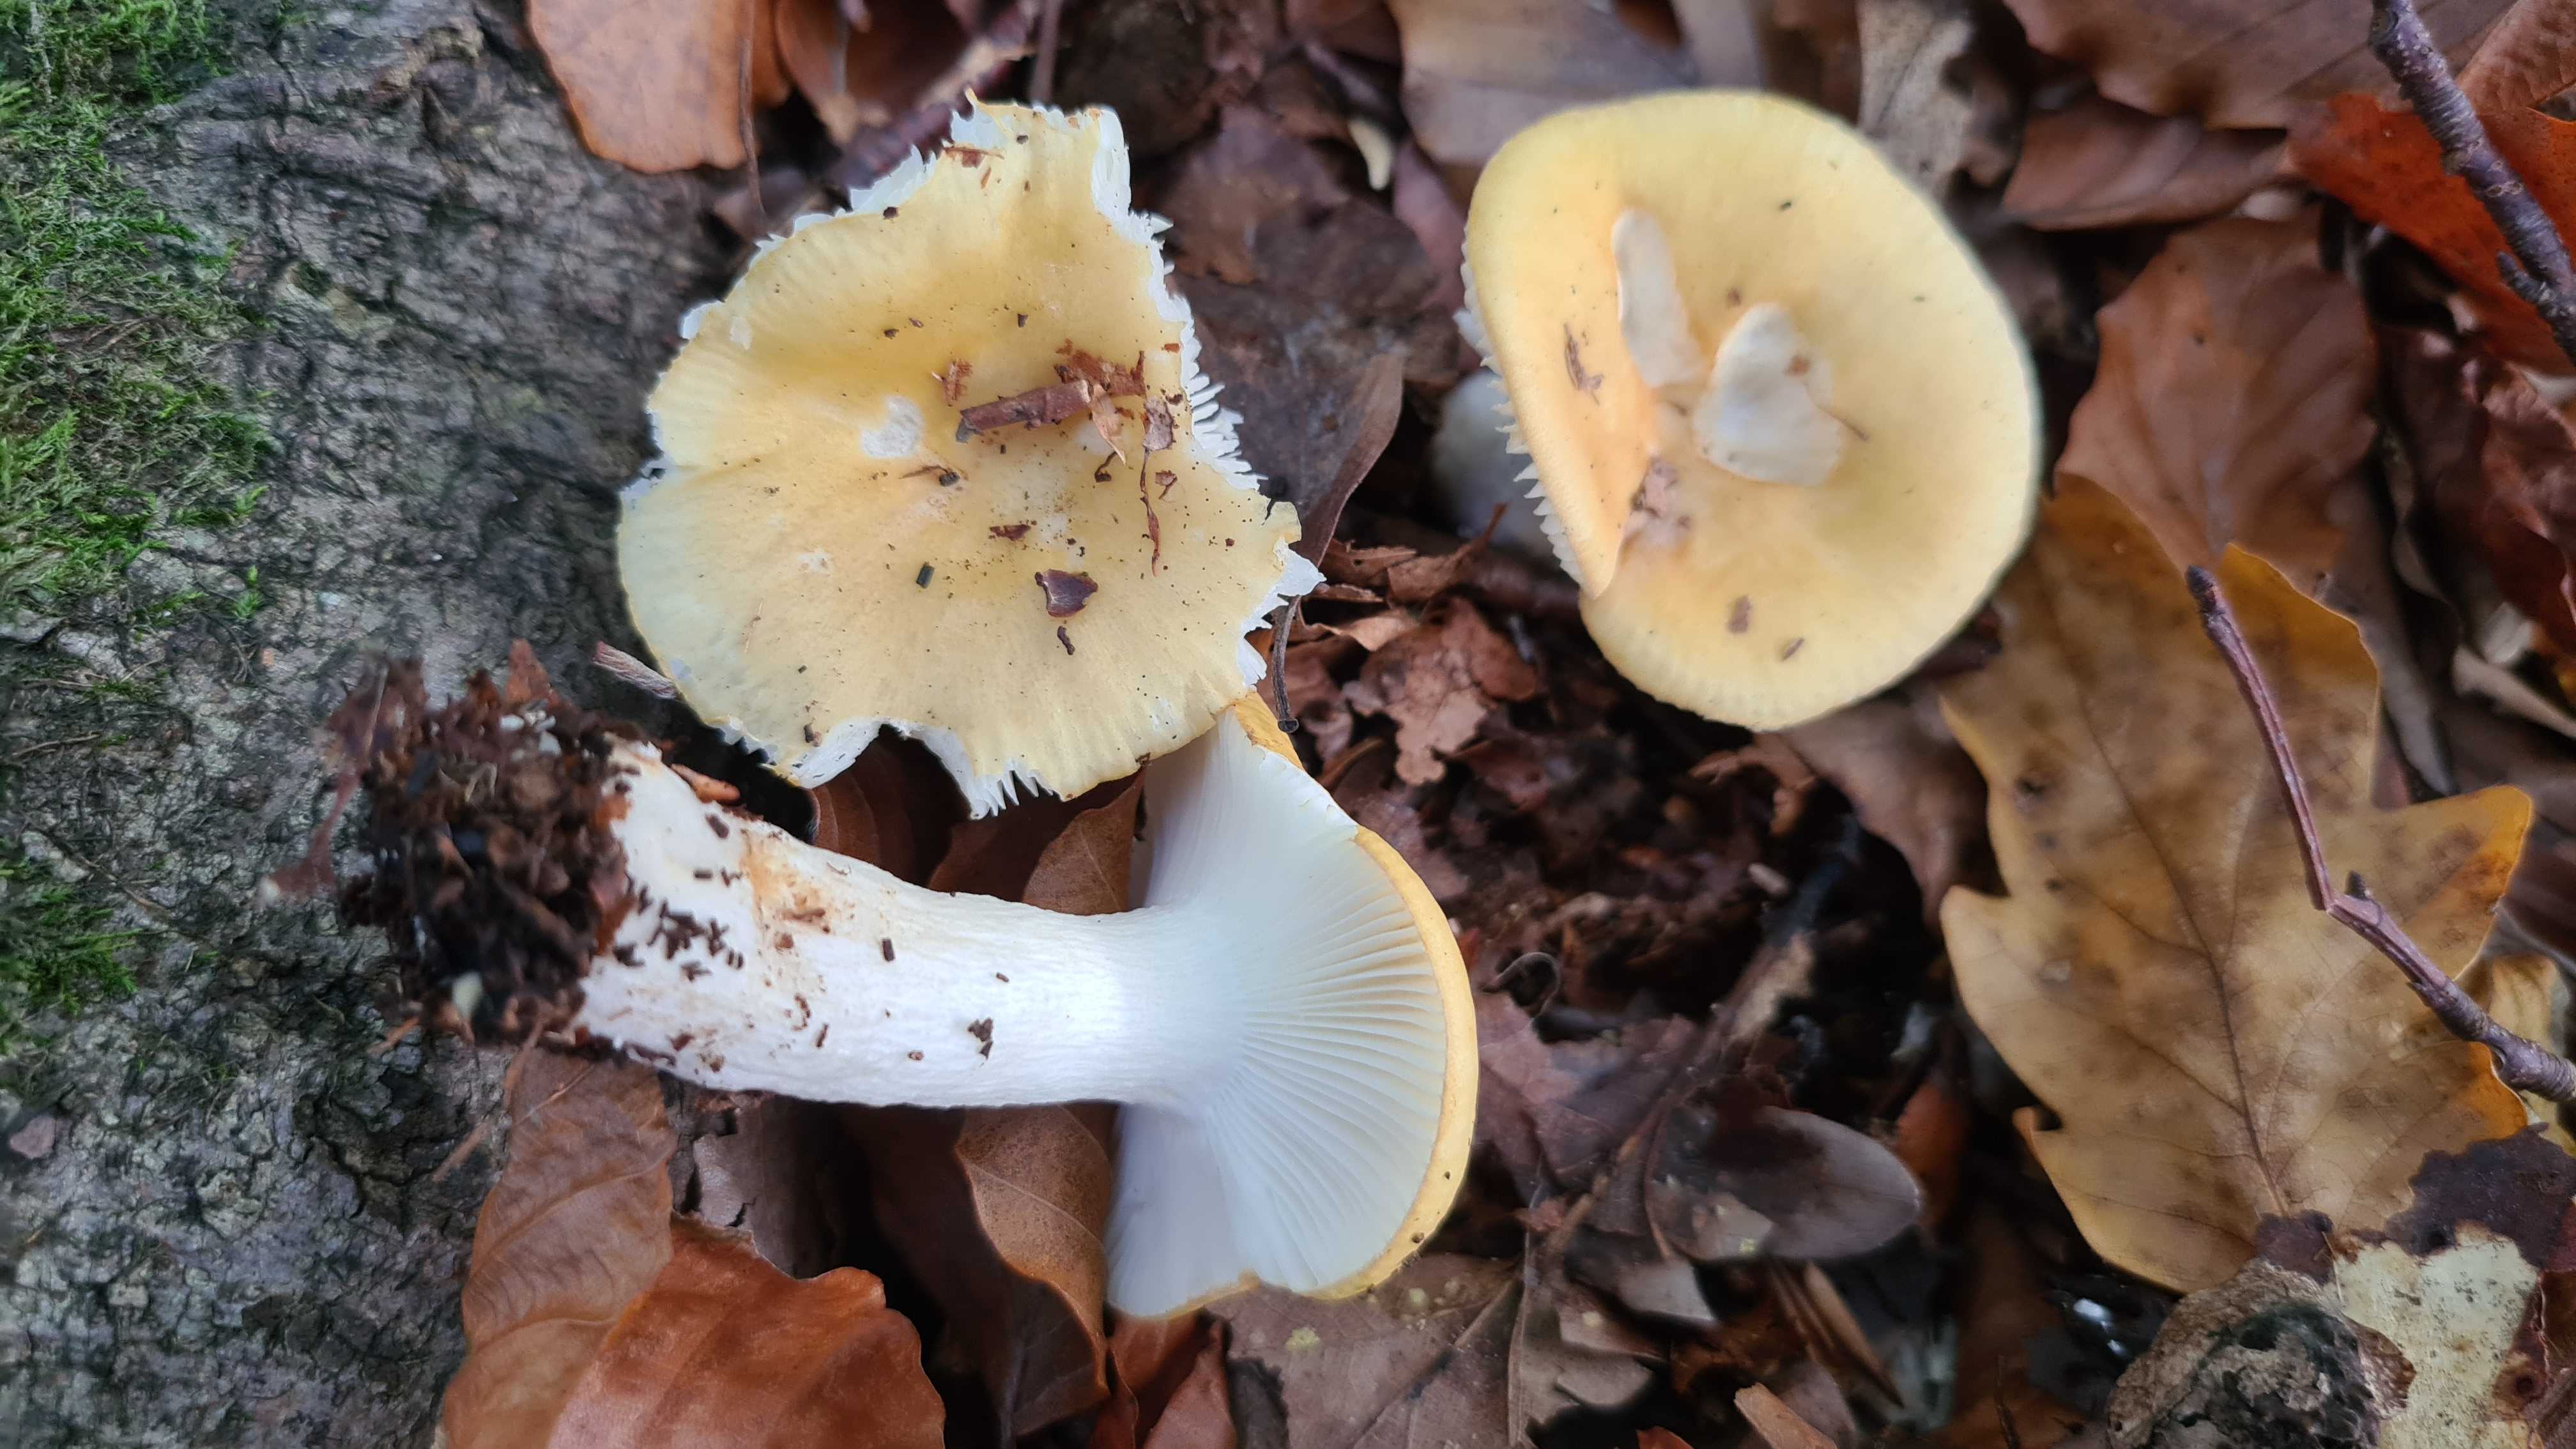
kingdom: Fungi
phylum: Basidiomycota
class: Agaricomycetes
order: Russulales
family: Russulaceae
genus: Russula
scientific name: Russula ochroleuca
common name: okkergul skørhat
